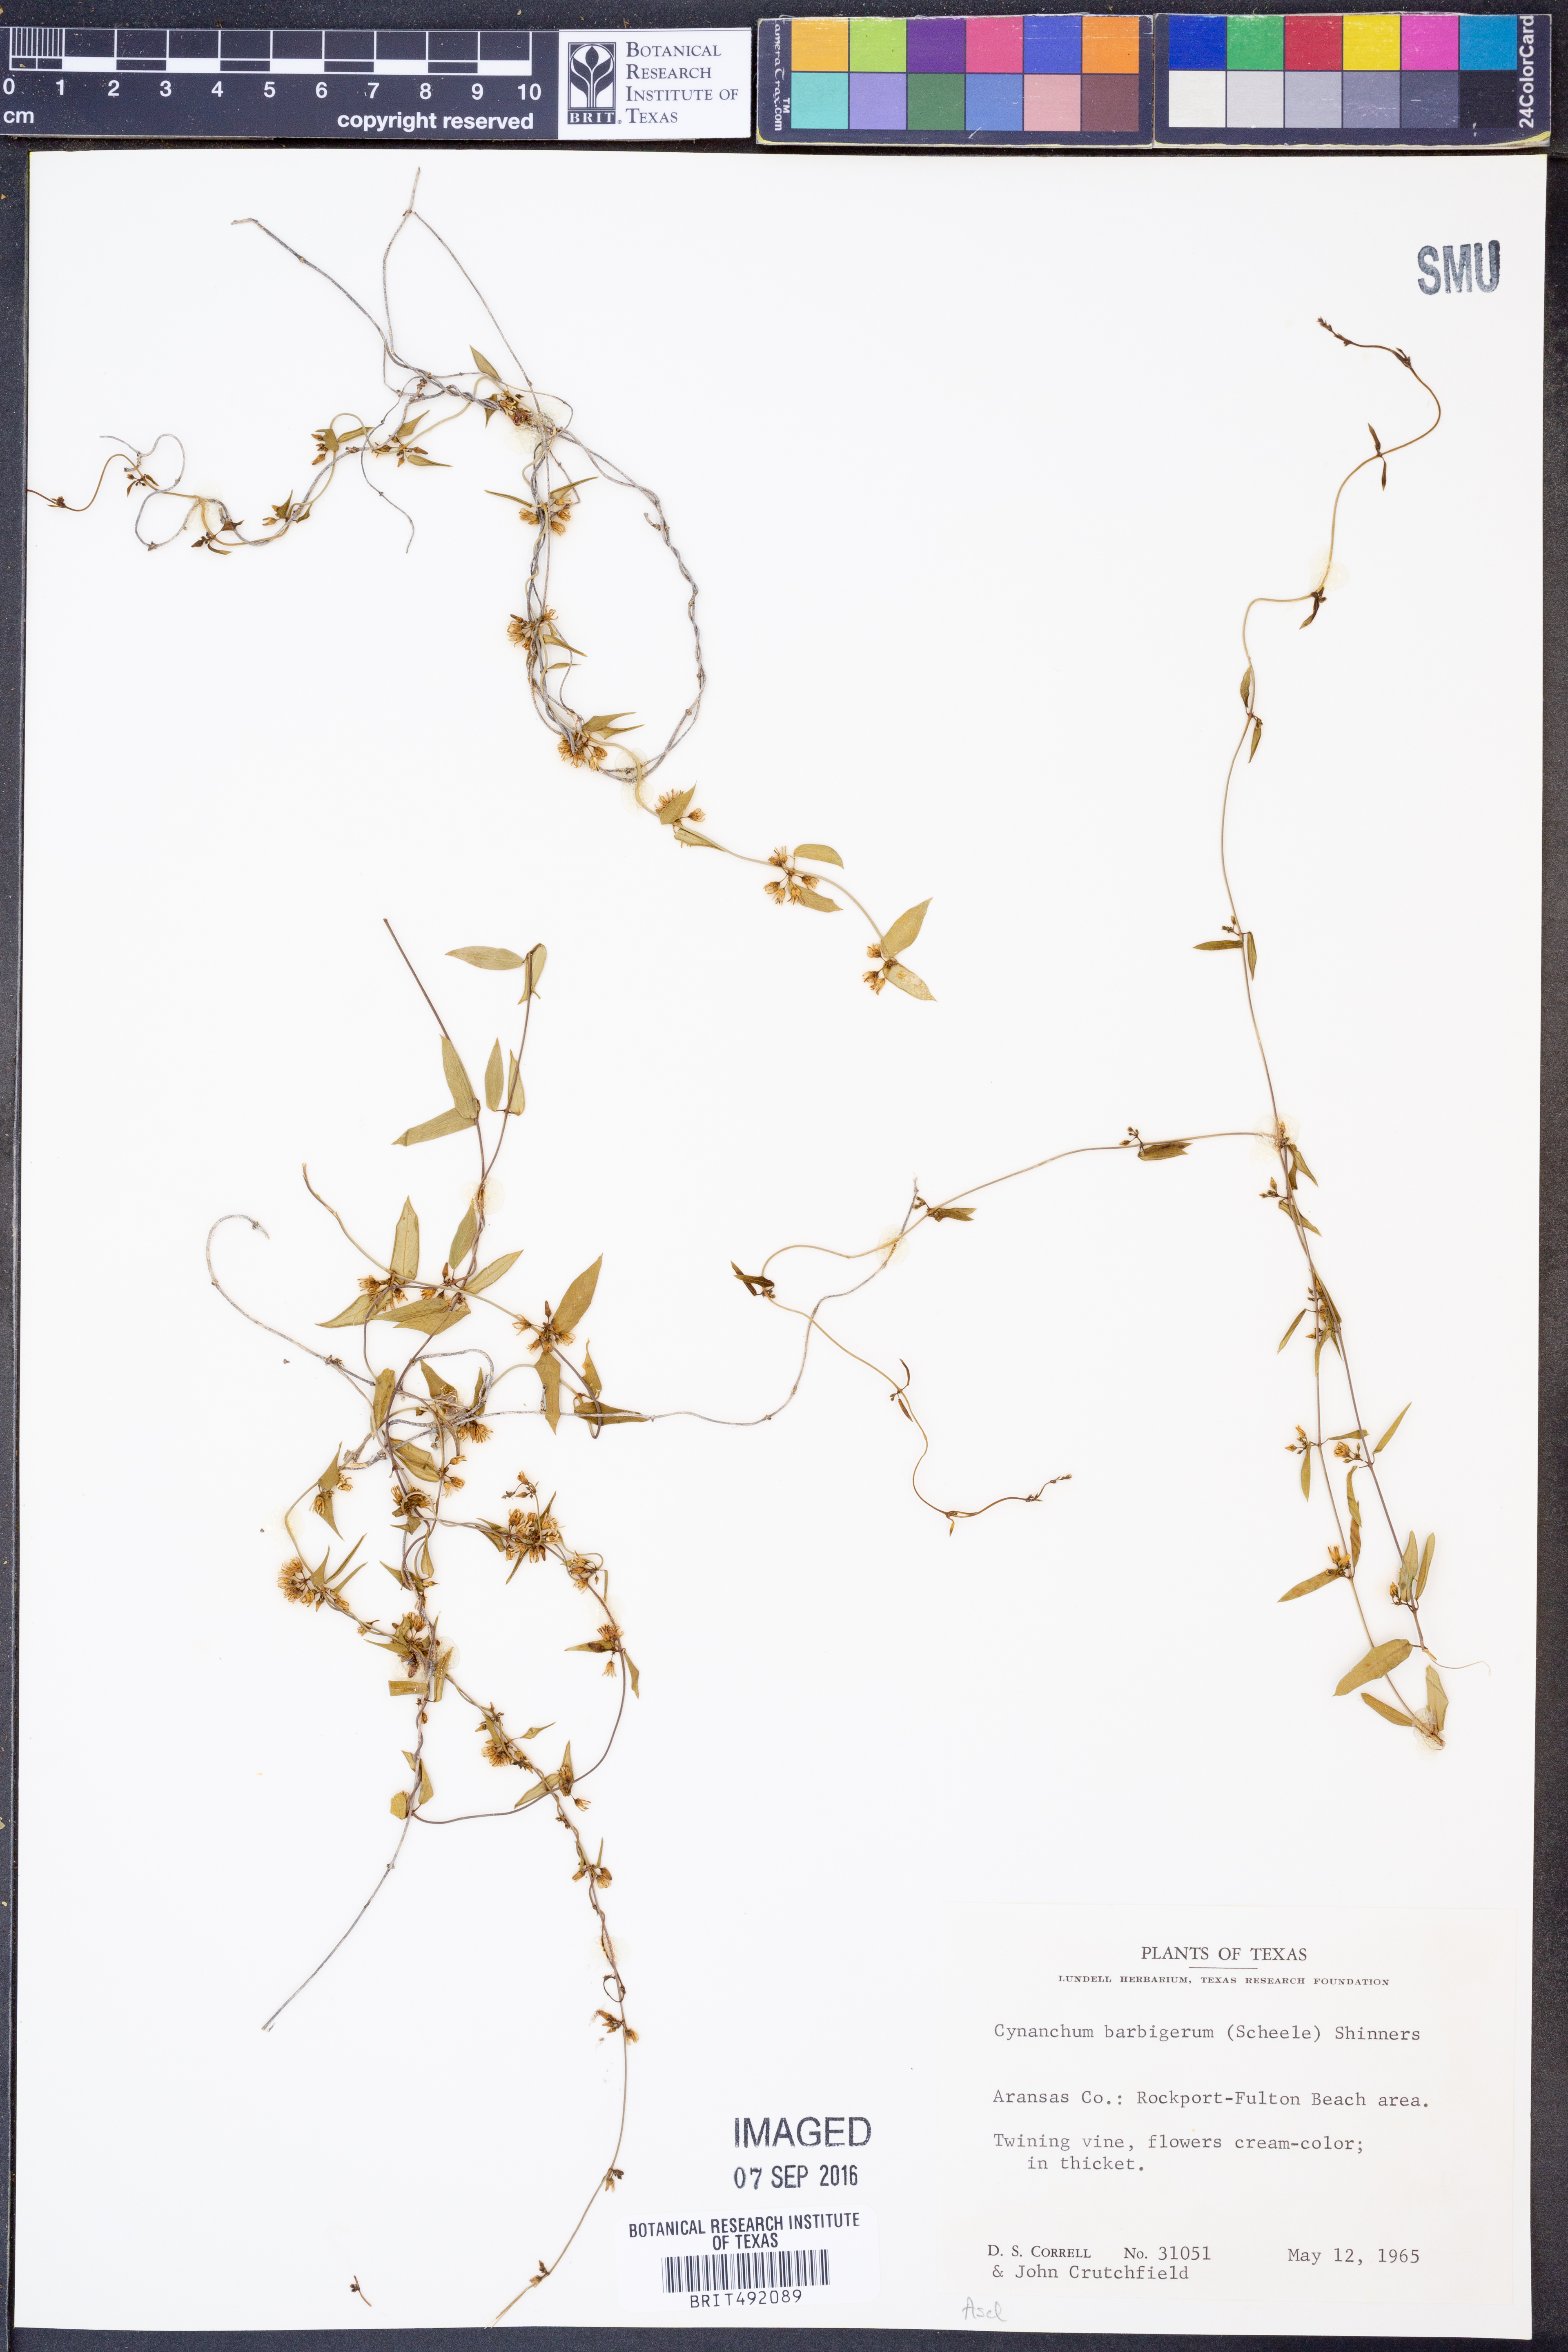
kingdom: Plantae
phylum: Tracheophyta
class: Magnoliopsida
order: Gentianales
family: Apocynaceae
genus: Metastelma
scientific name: Metastelma barbigerum
